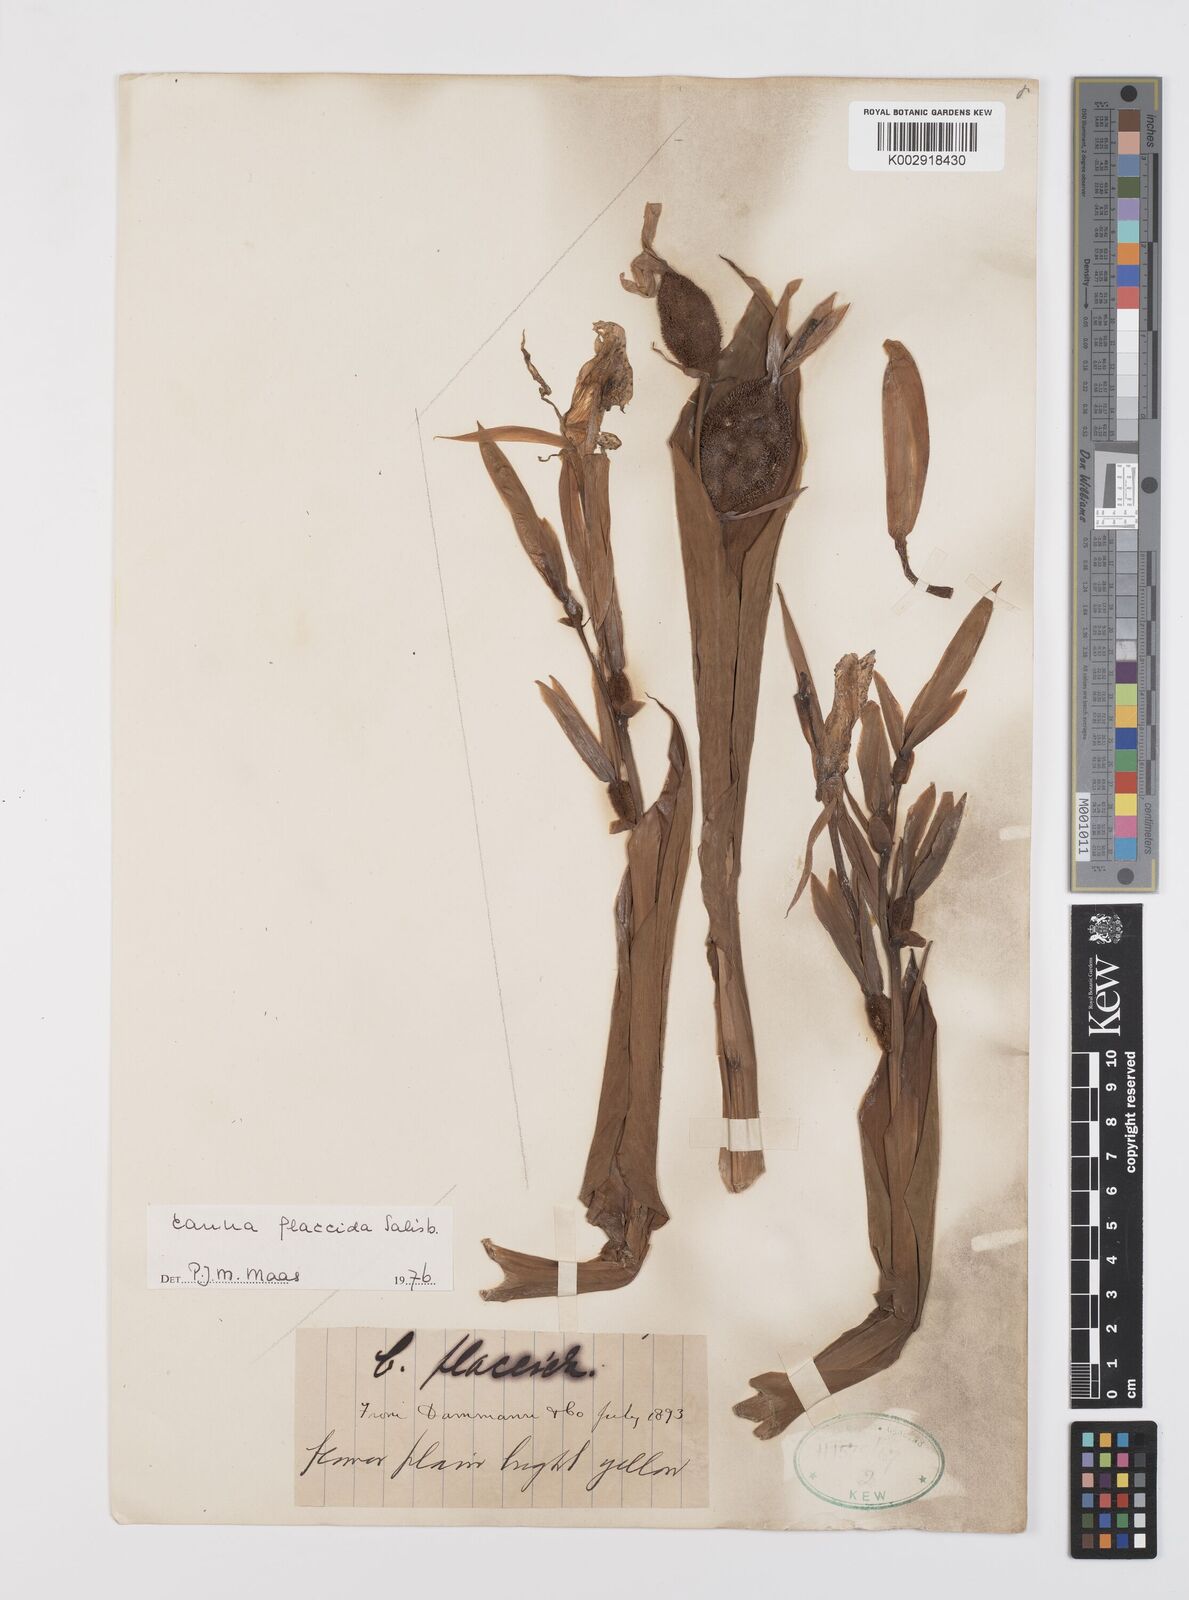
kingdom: Plantae
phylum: Tracheophyta
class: Liliopsida
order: Zingiberales
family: Cannaceae
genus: Canna
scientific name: Canna flaccida
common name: Bandana-of-the-everglades
